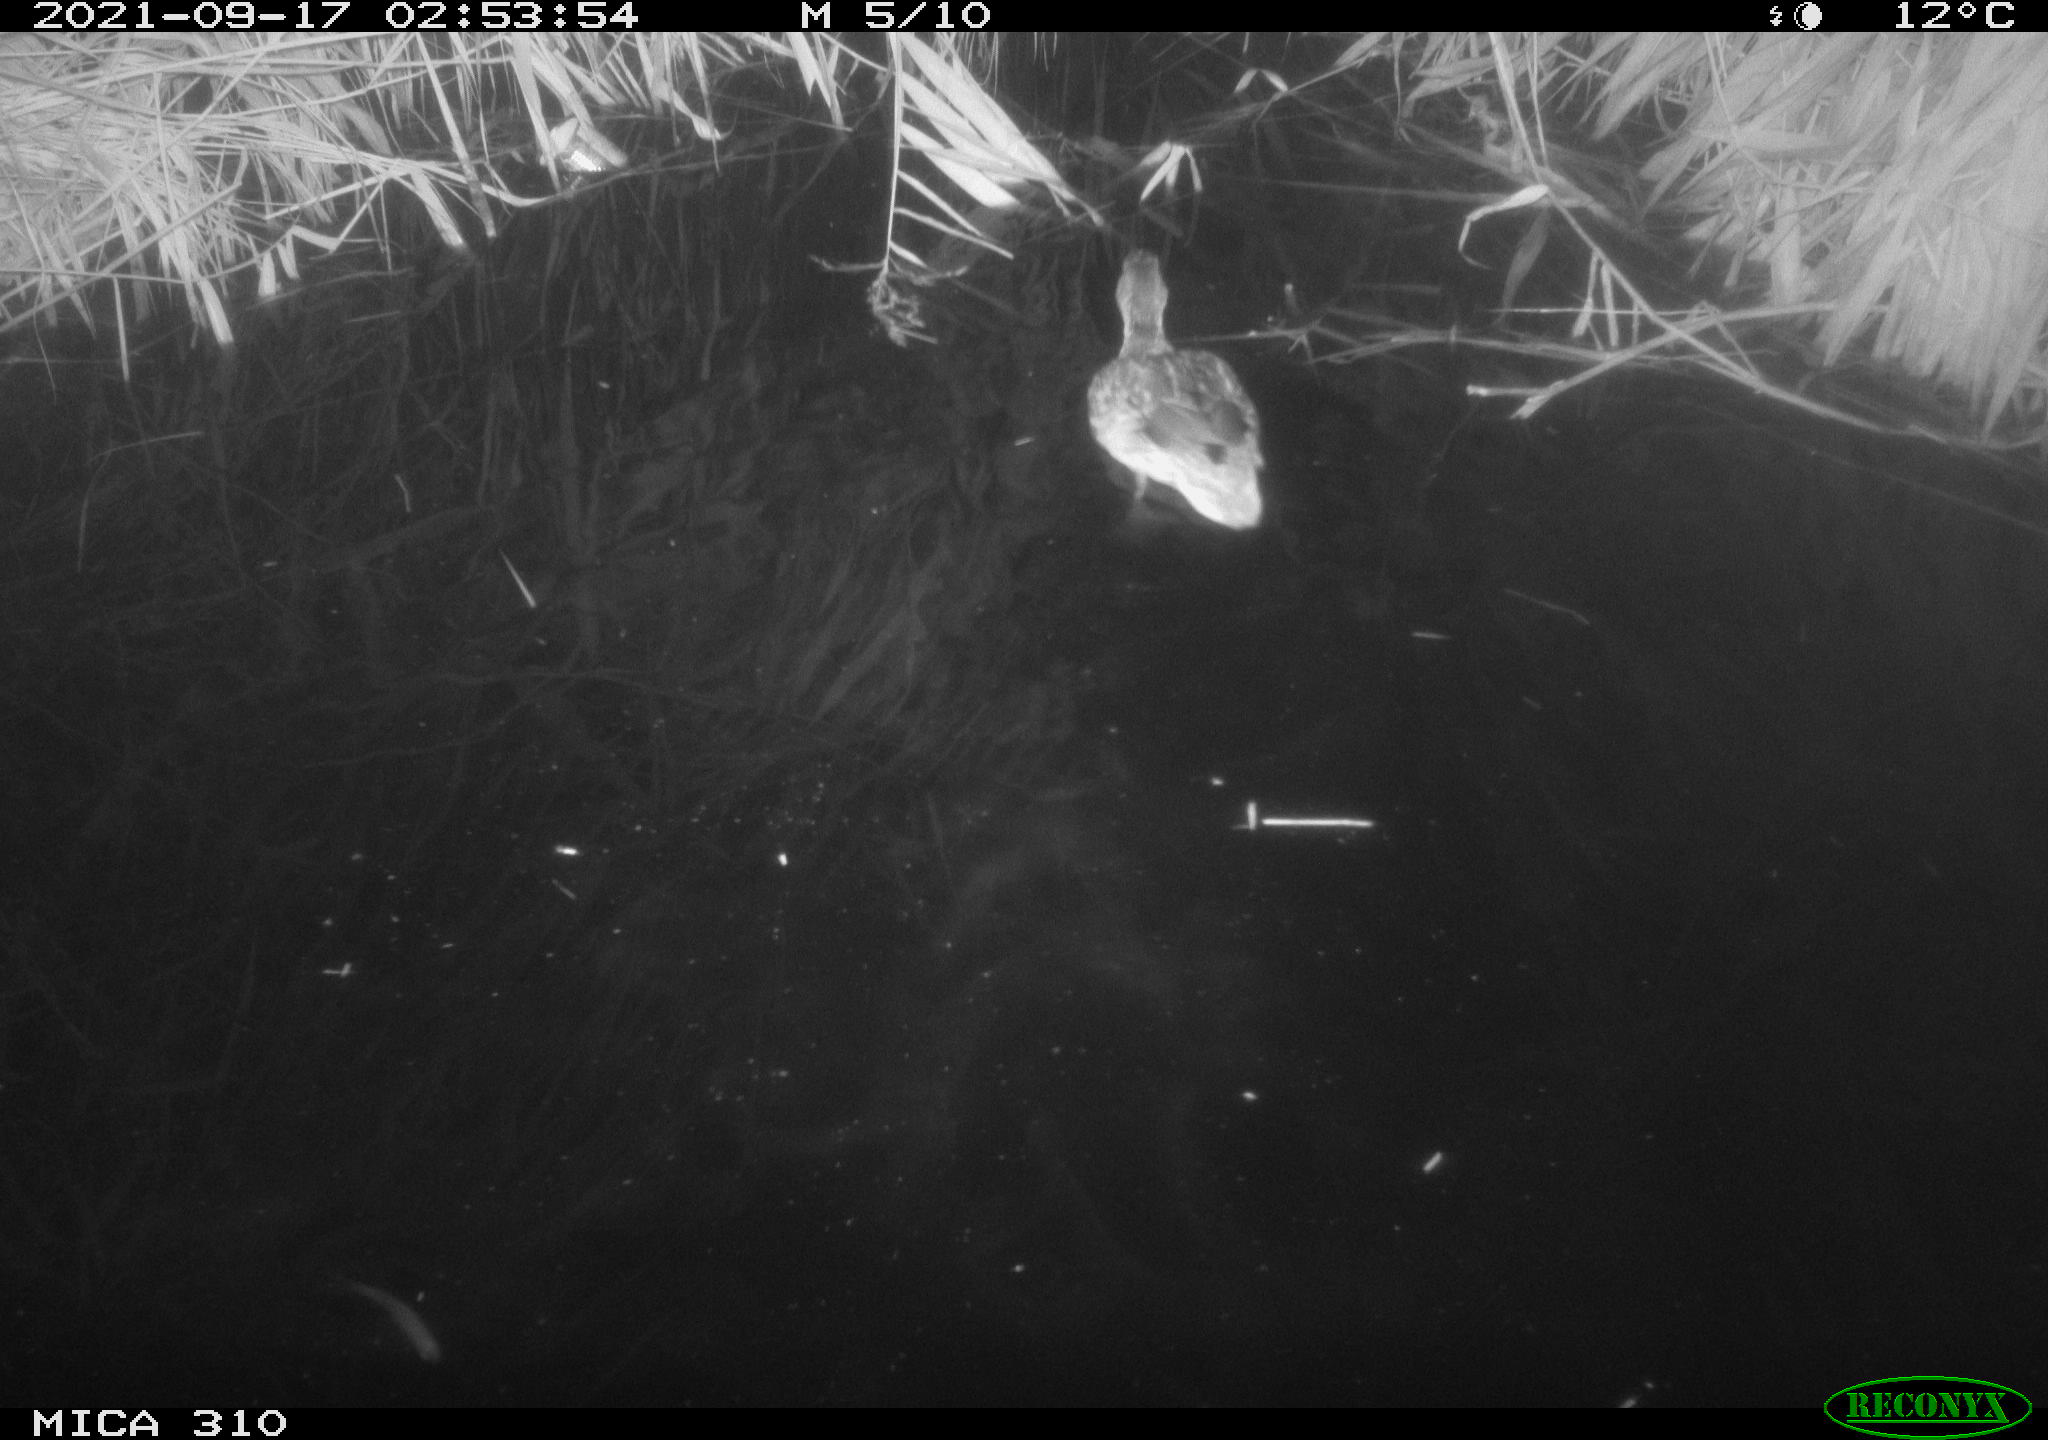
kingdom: Animalia
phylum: Chordata
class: Aves
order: Anseriformes
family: Anatidae
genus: Mareca
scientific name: Mareca strepera
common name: Gadwall
